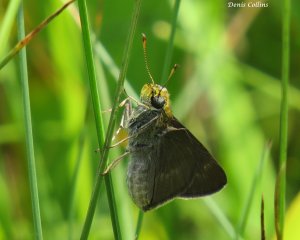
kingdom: Animalia
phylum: Arthropoda
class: Insecta
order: Lepidoptera
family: Hesperiidae
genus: Polites
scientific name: Polites egeremet
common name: Northern Broken-Dash
